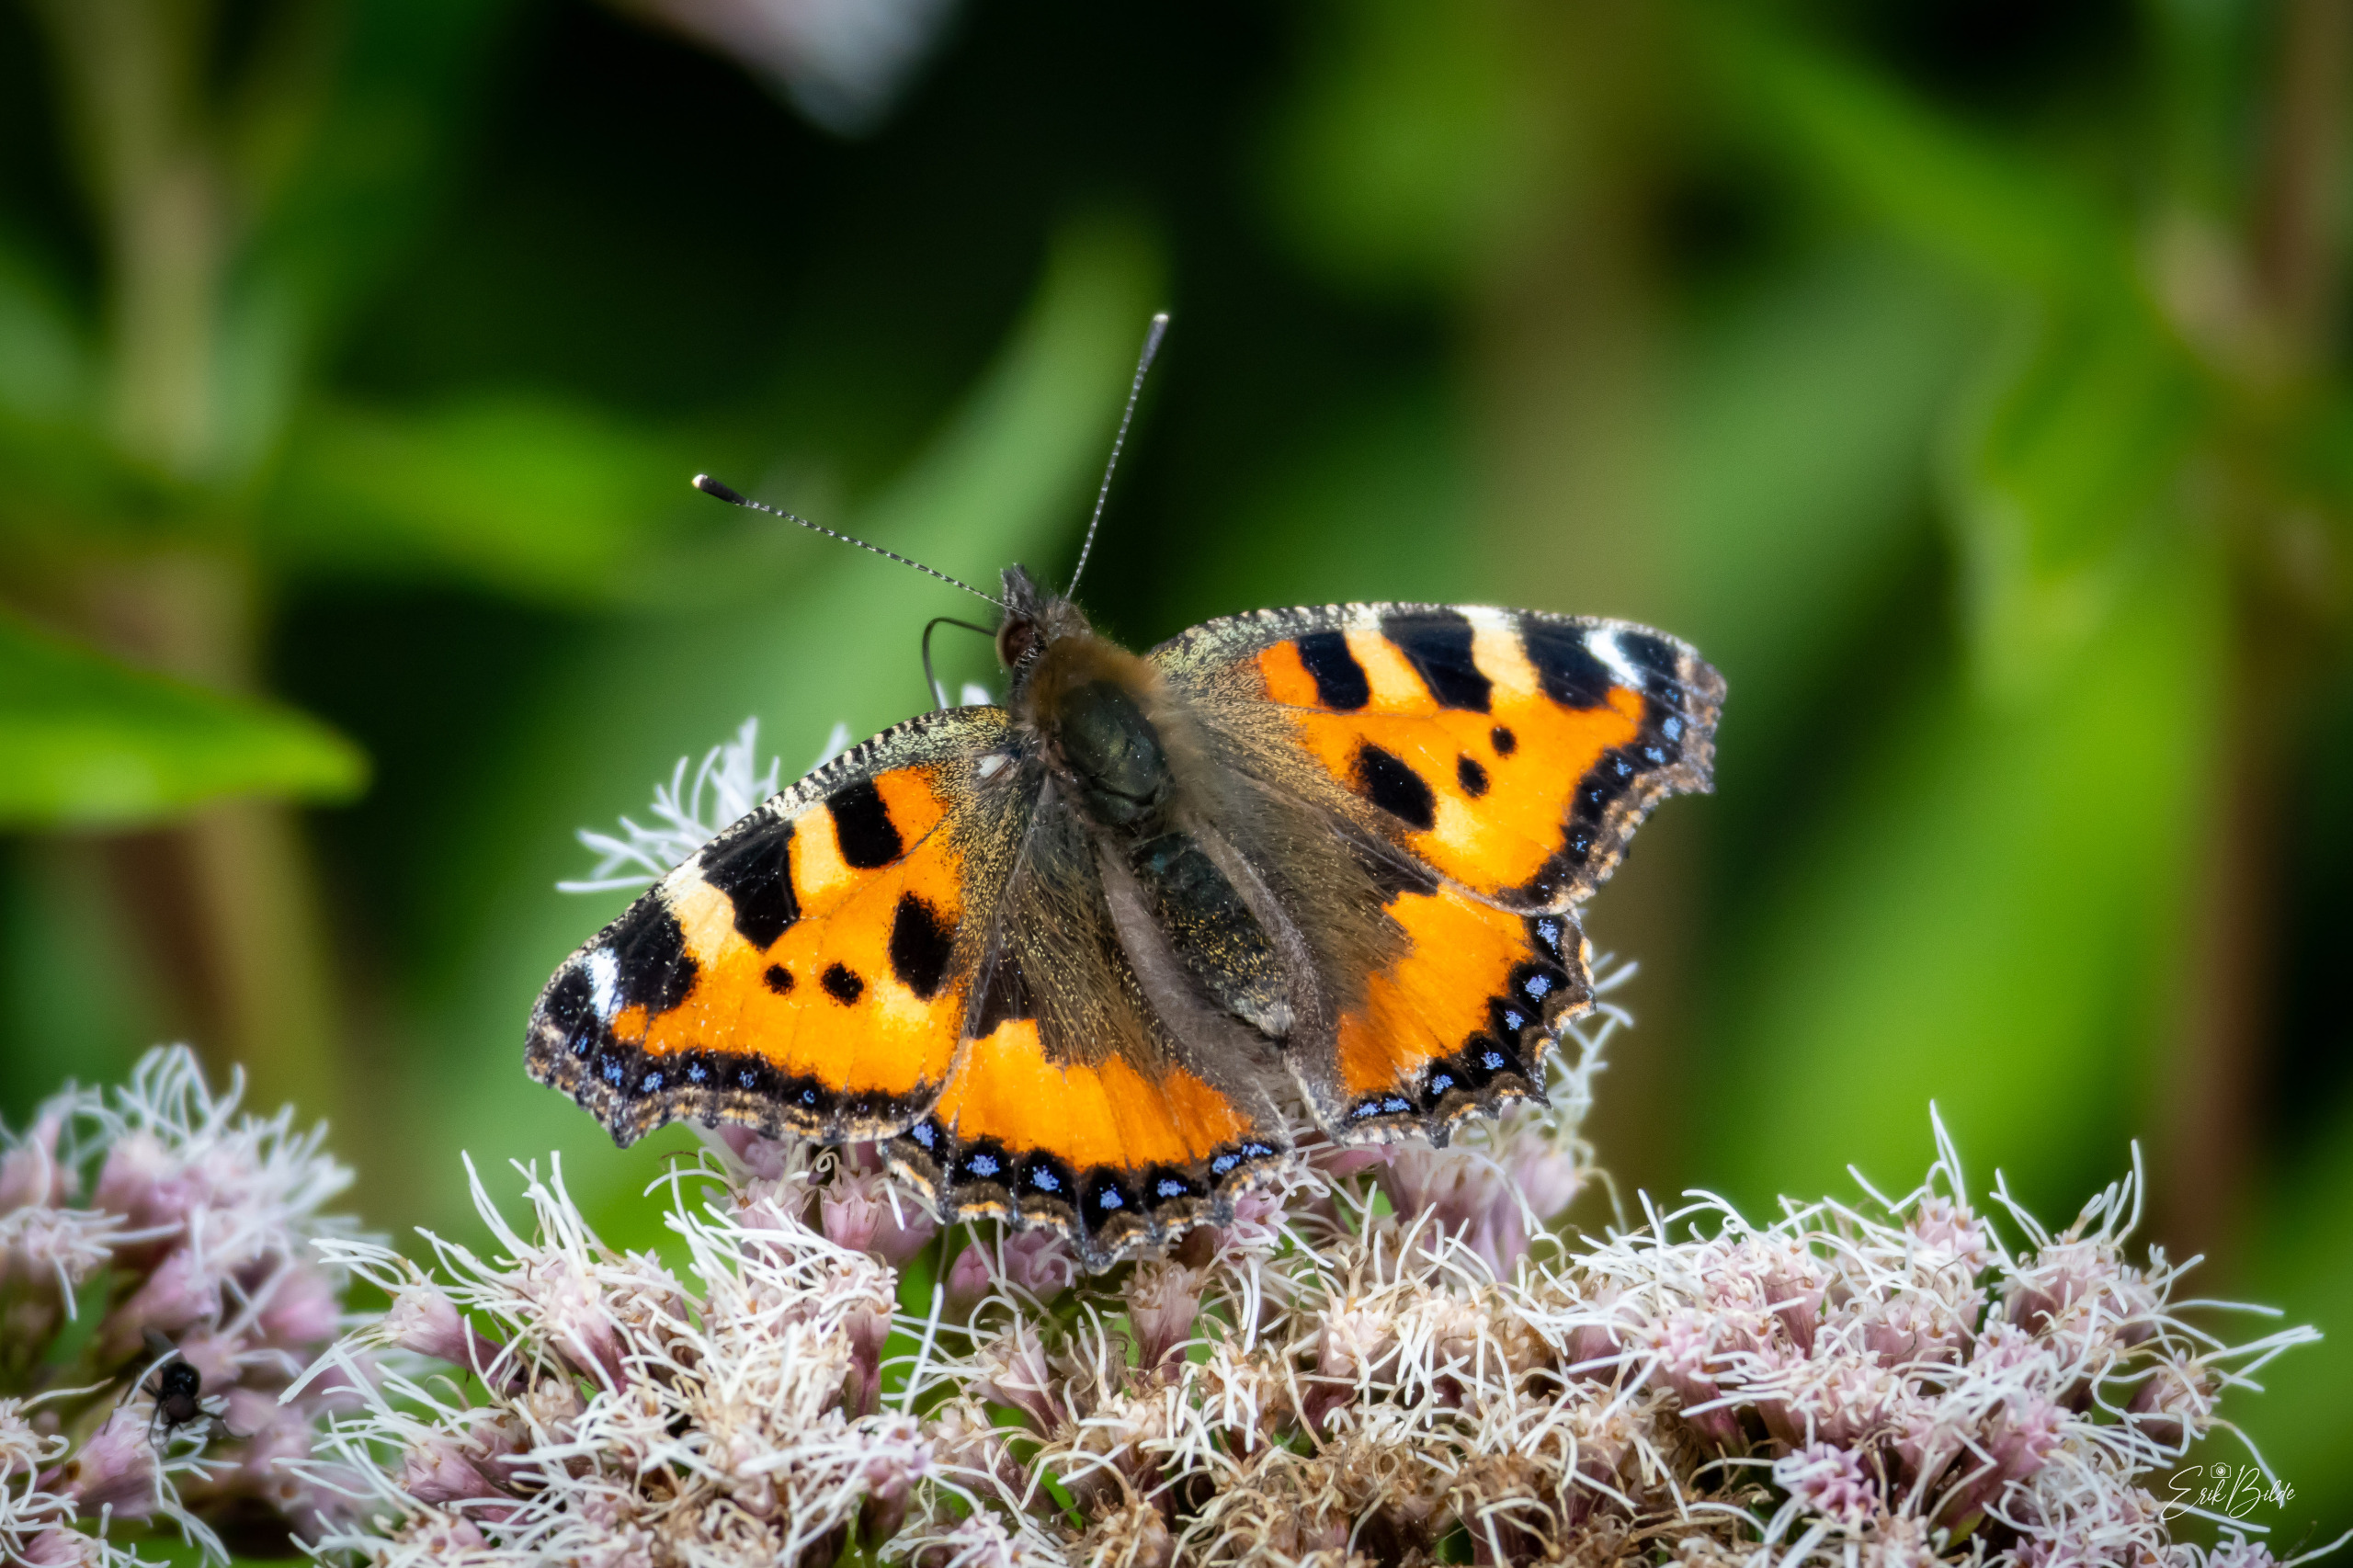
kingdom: Animalia
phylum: Arthropoda
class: Insecta
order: Lepidoptera
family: Nymphalidae
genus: Aglais
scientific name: Aglais urticae
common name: Nældens takvinge
